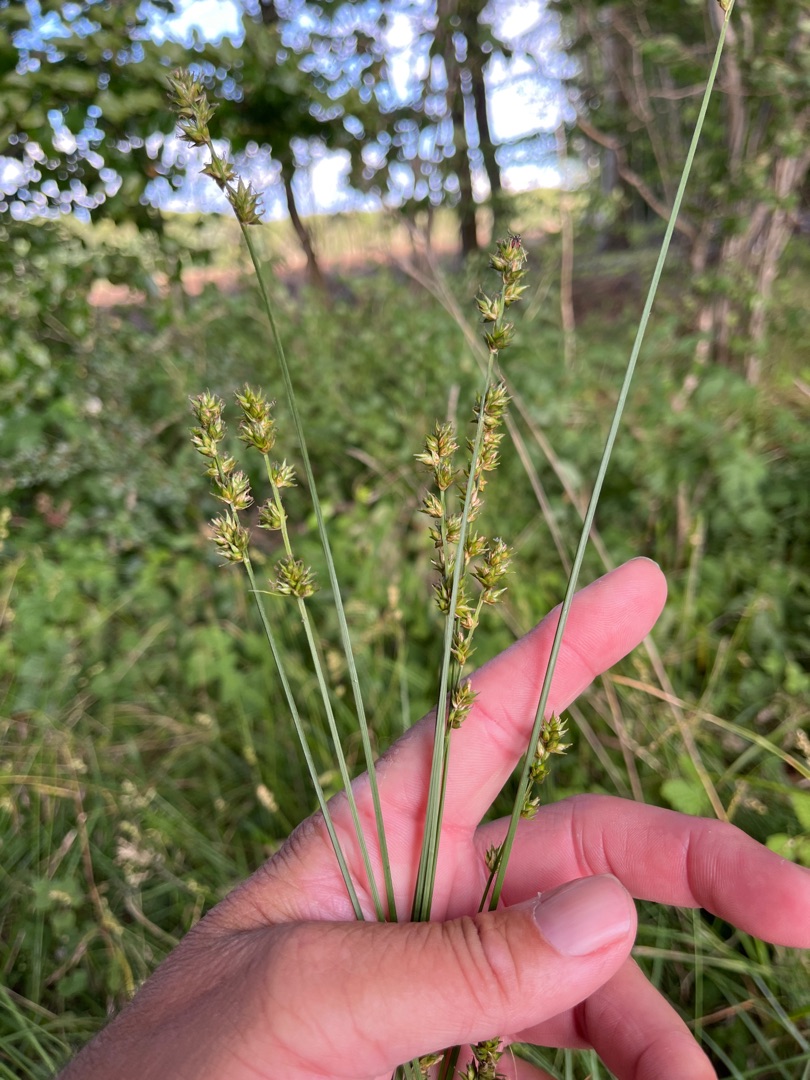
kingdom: Plantae
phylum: Tracheophyta
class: Liliopsida
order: Poales
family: Cyperaceae
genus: Carex
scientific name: Carex divulsa
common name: Mellembrudt star
